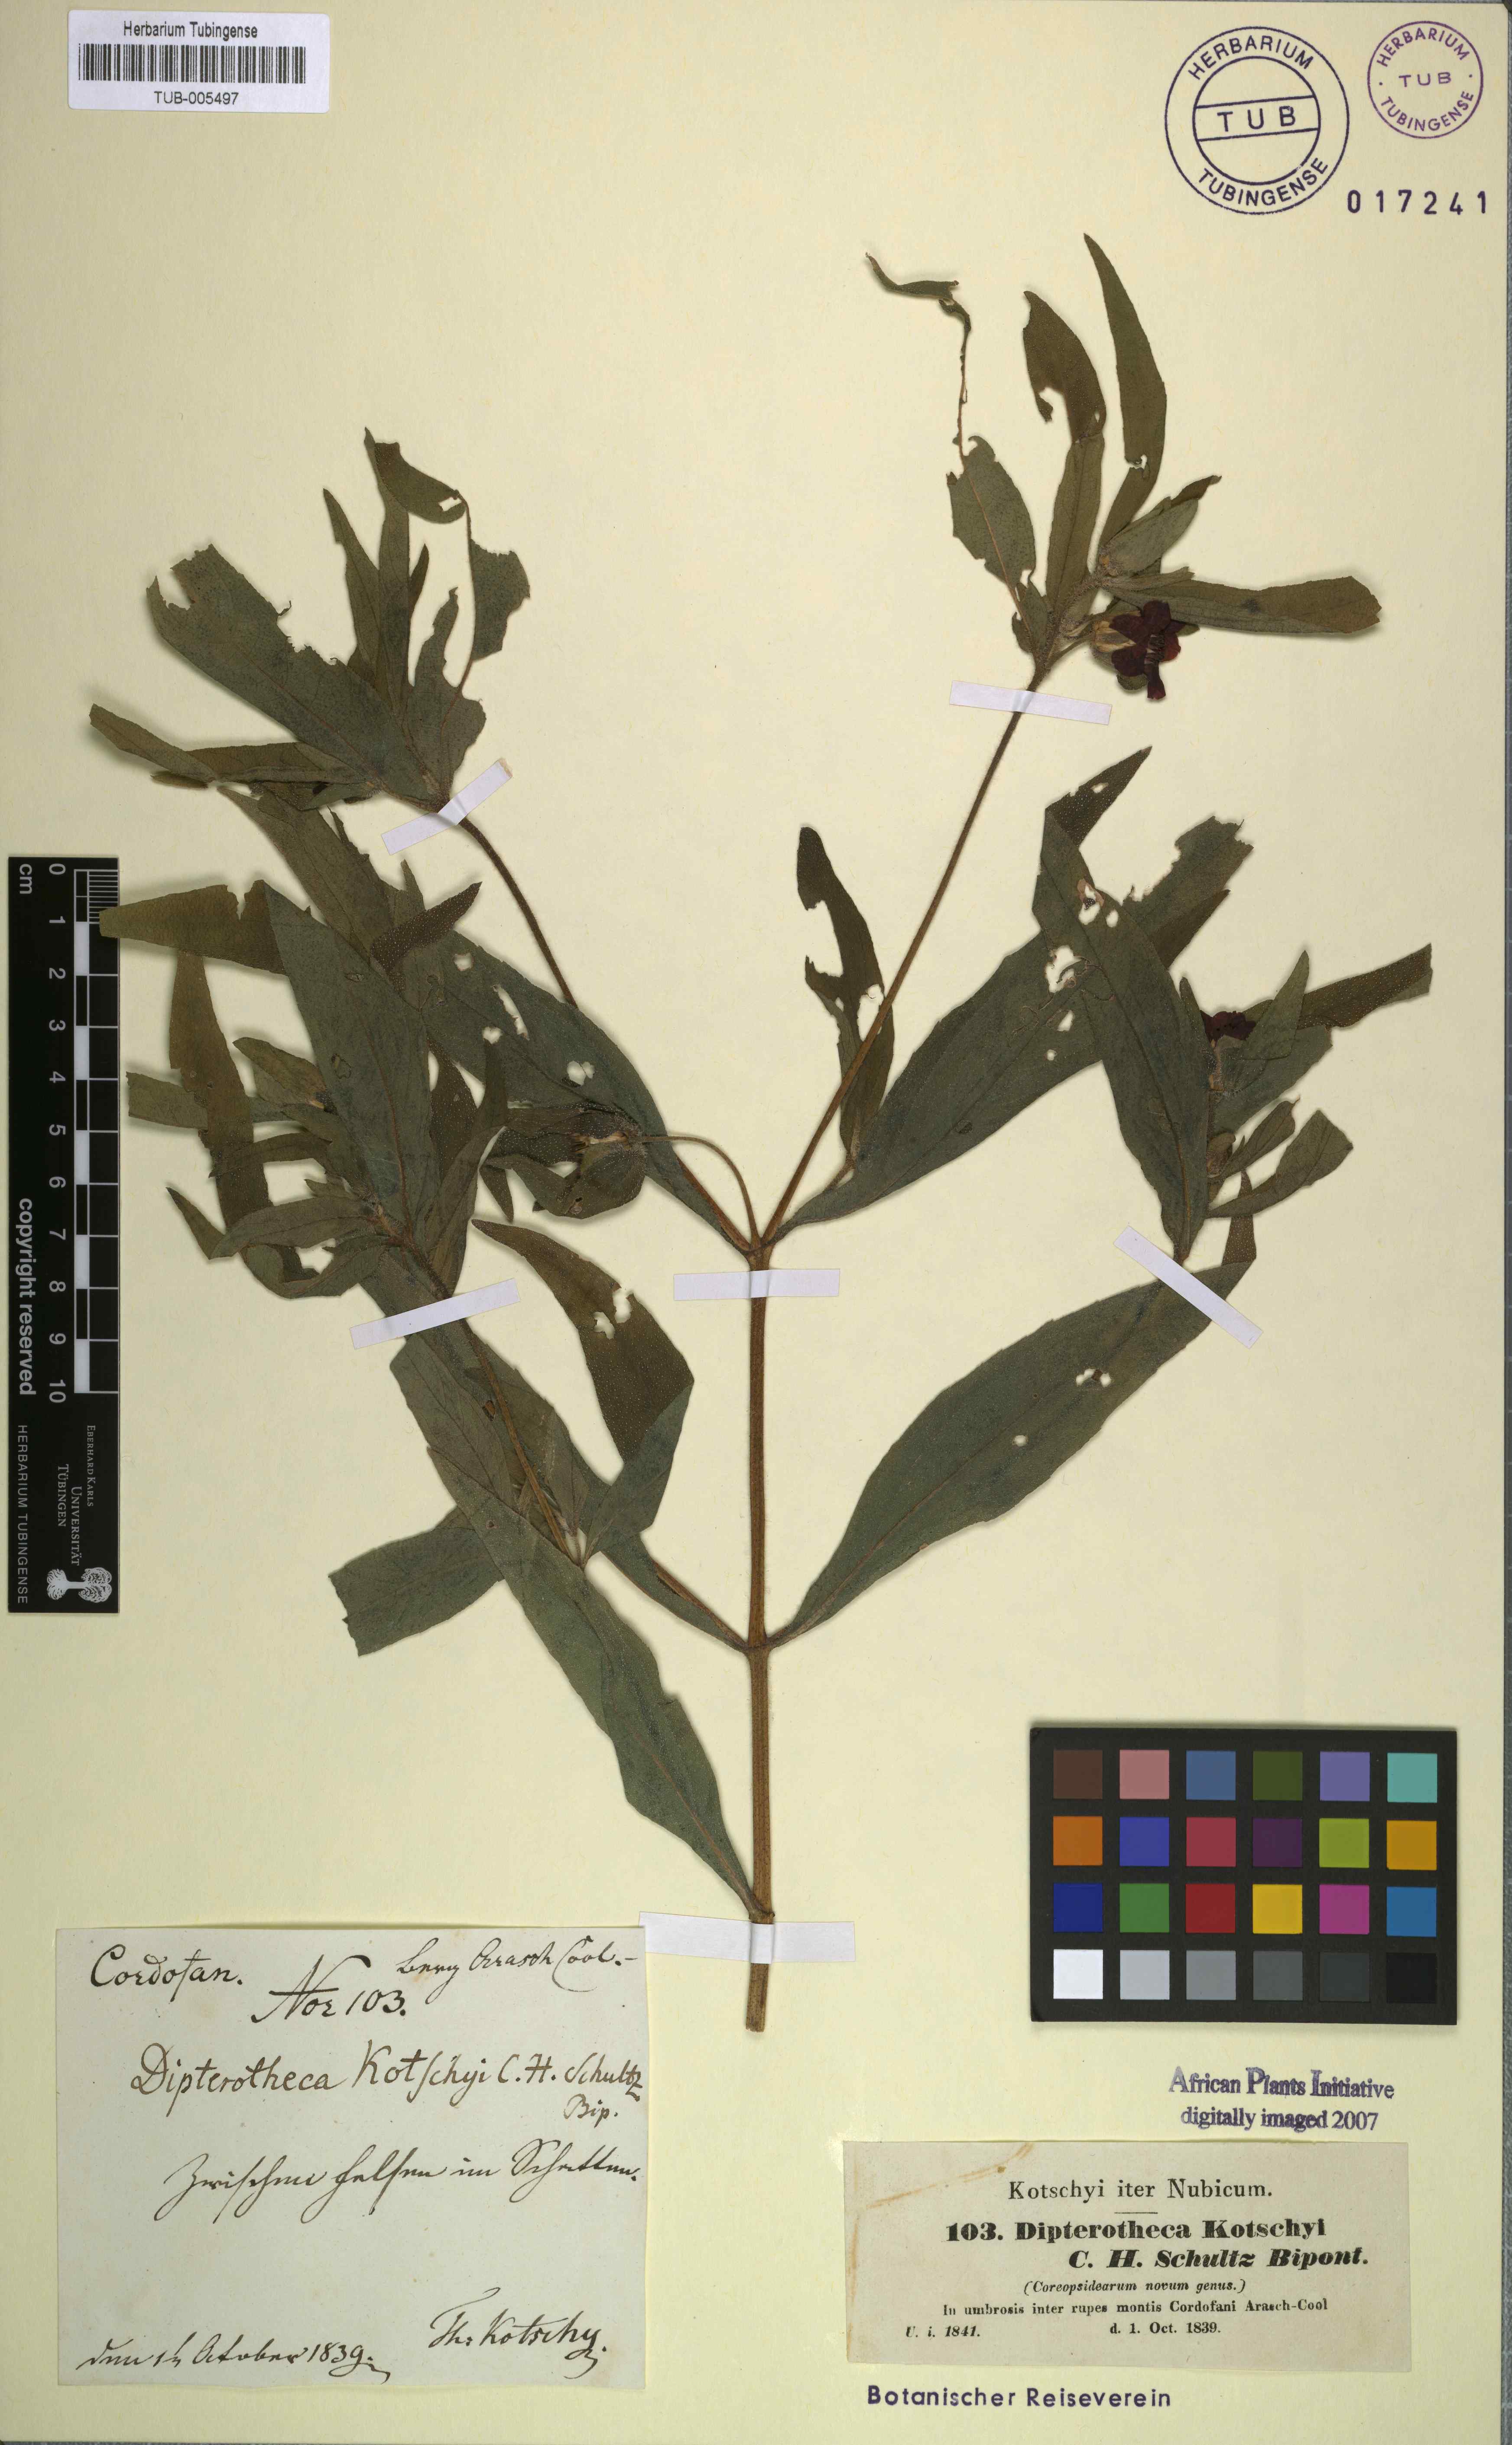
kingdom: Plantae
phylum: Tracheophyta
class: Magnoliopsida
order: Asterales
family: Asteraceae
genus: Aspilia
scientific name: Aspilia kotschyi
